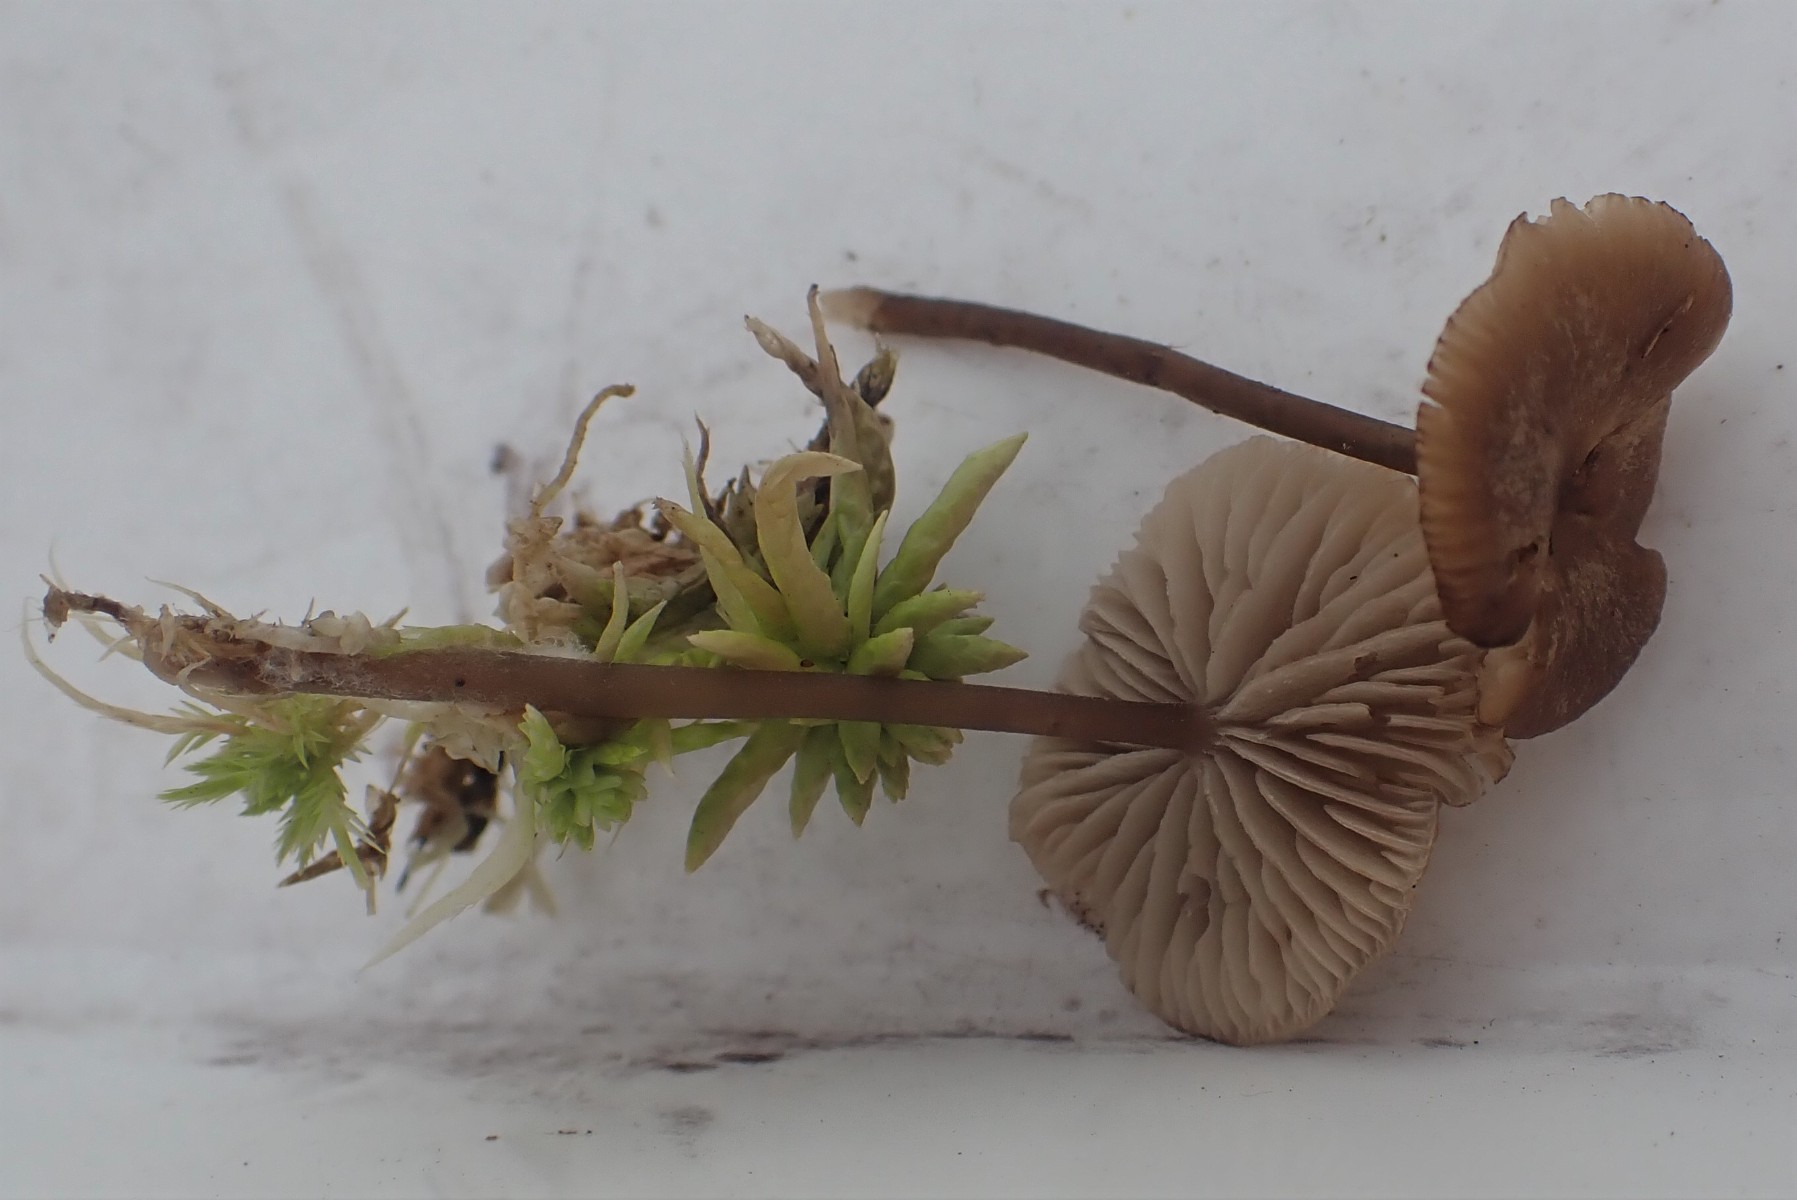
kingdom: Fungi
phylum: Basidiomycota
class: Agaricomycetes
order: Agaricales
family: Lyophyllaceae
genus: Sphagnurus
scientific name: Sphagnurus paluster
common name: tørvemos-gråblad
